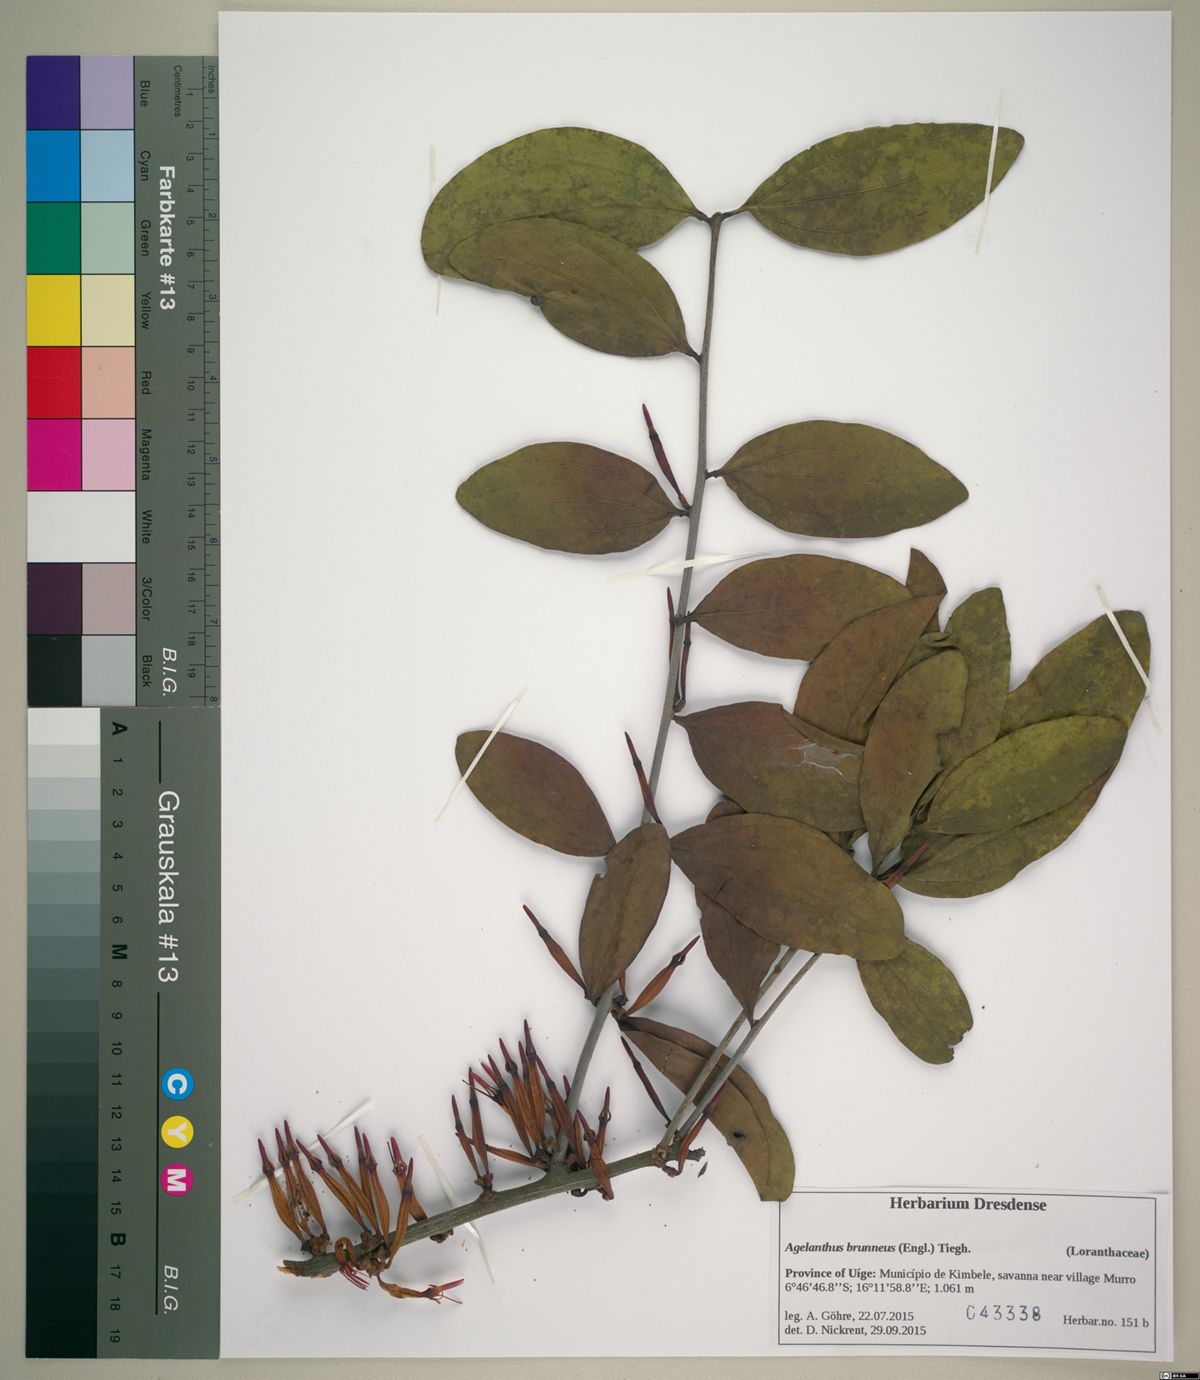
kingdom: Plantae
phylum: Tracheophyta
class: Magnoliopsida
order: Santalales
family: Loranthaceae
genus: Agelanthus
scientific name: Agelanthus brunneus
